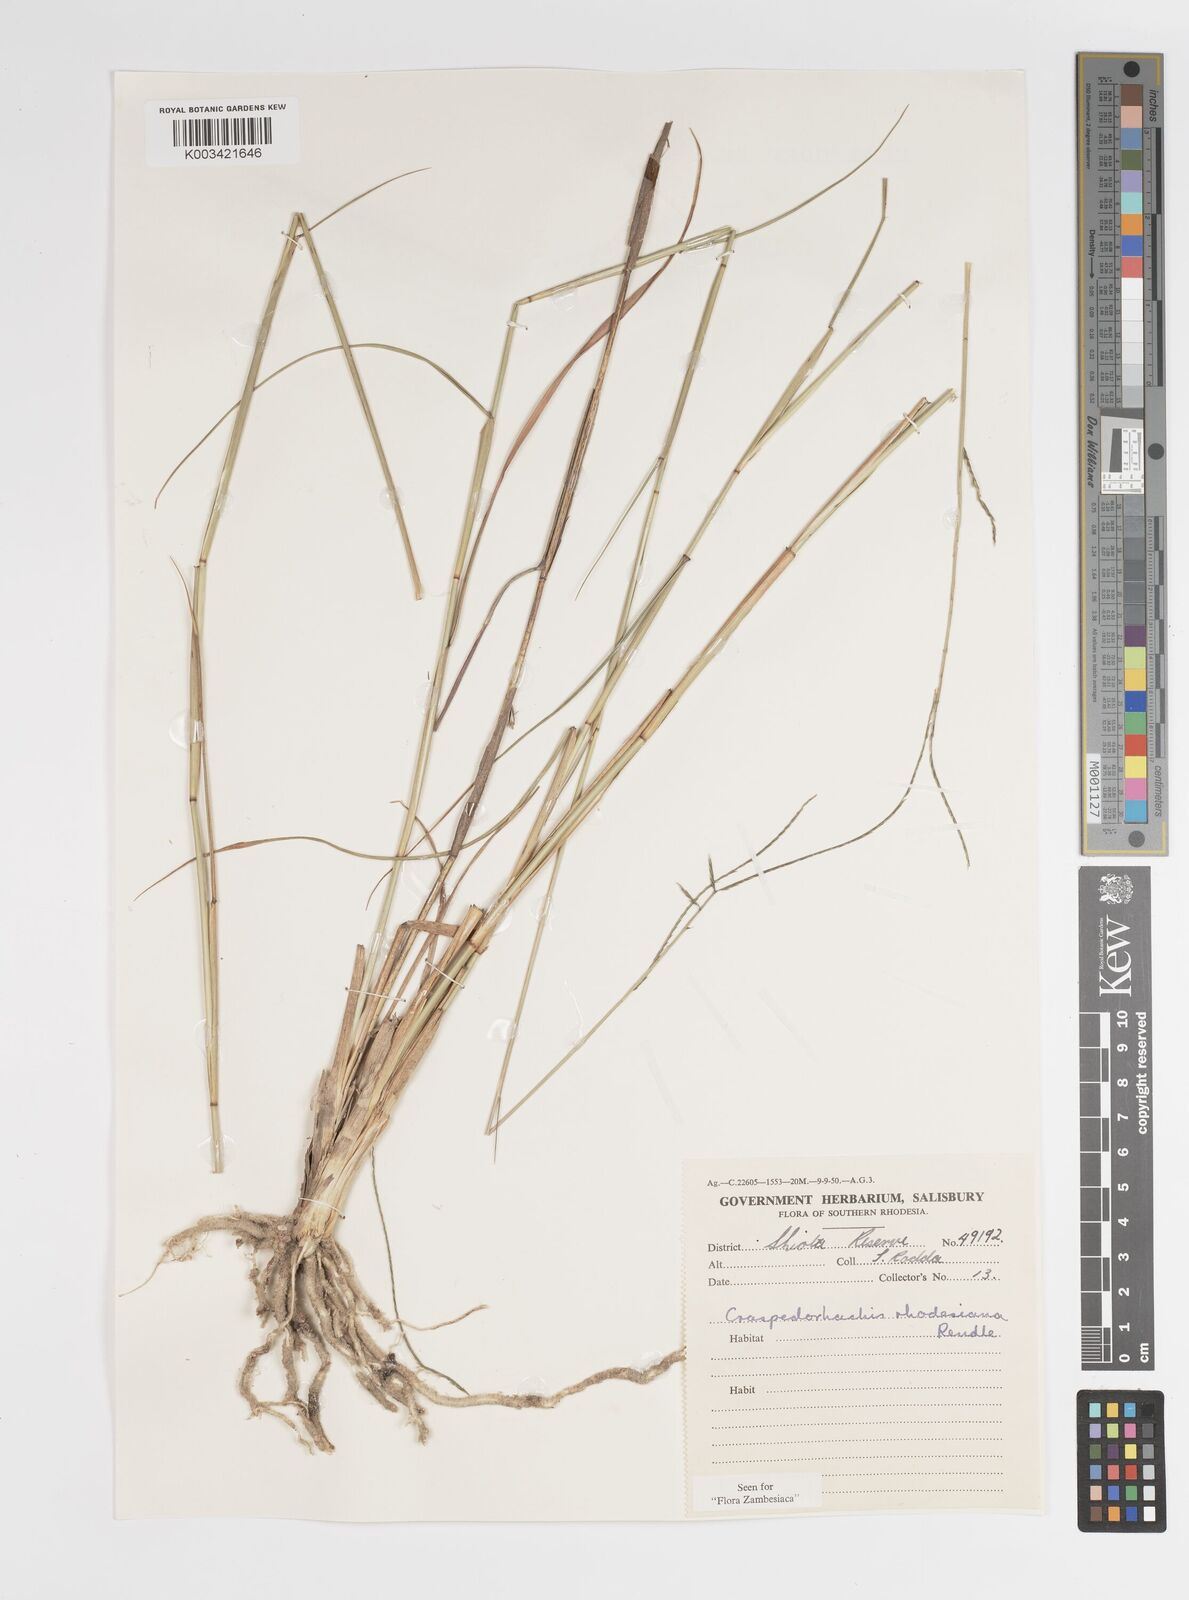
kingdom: Plantae
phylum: Tracheophyta
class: Liliopsida
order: Poales
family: Poaceae
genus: Craspedorhachis
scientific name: Craspedorhachis rhodesiana
